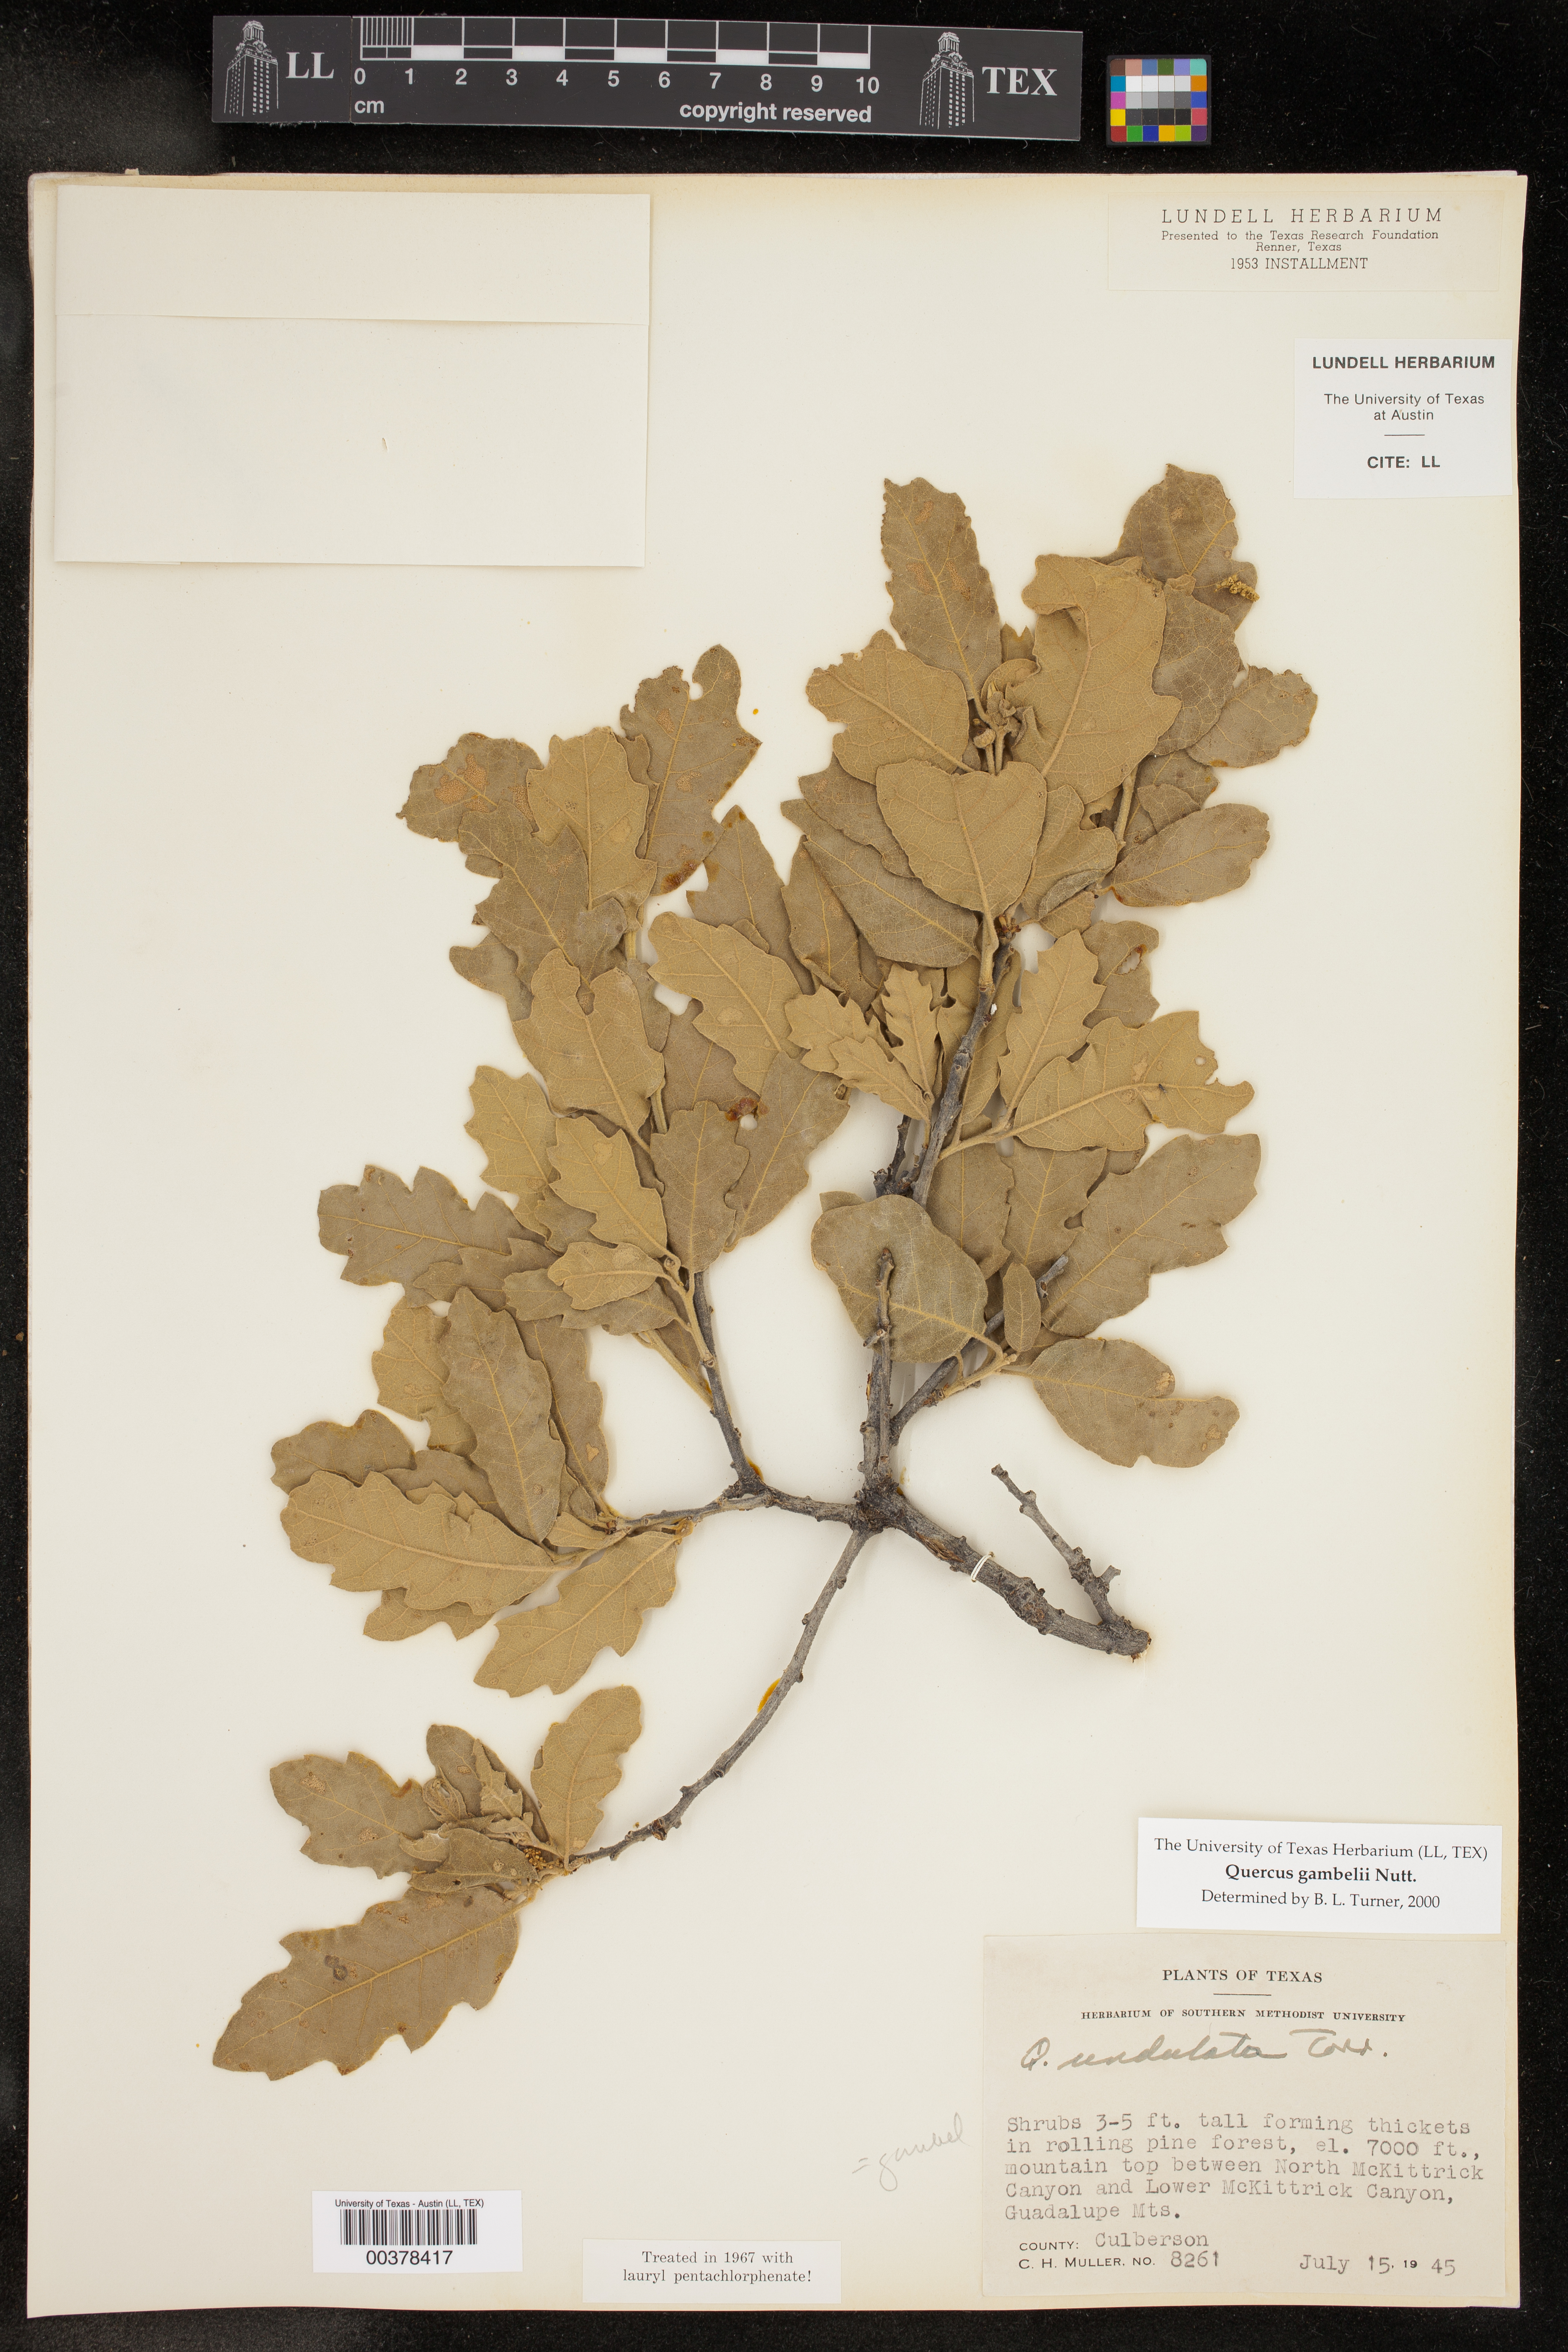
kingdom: Plantae
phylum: Tracheophyta
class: Magnoliopsida
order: Fagales
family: Fagaceae
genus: Quercus
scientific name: Quercus gambelii
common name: Gambel oak
